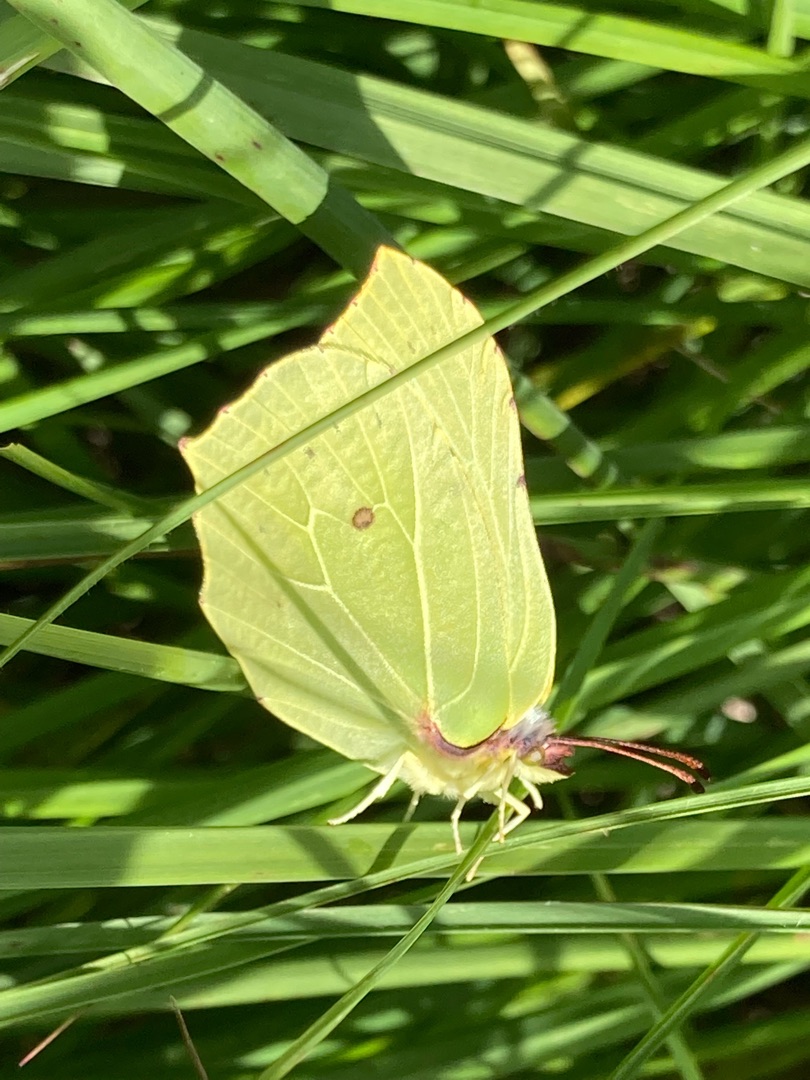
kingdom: Animalia
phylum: Arthropoda
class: Insecta
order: Lepidoptera
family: Pieridae
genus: Gonepteryx
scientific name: Gonepteryx rhamni
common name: Citronsommerfugl
